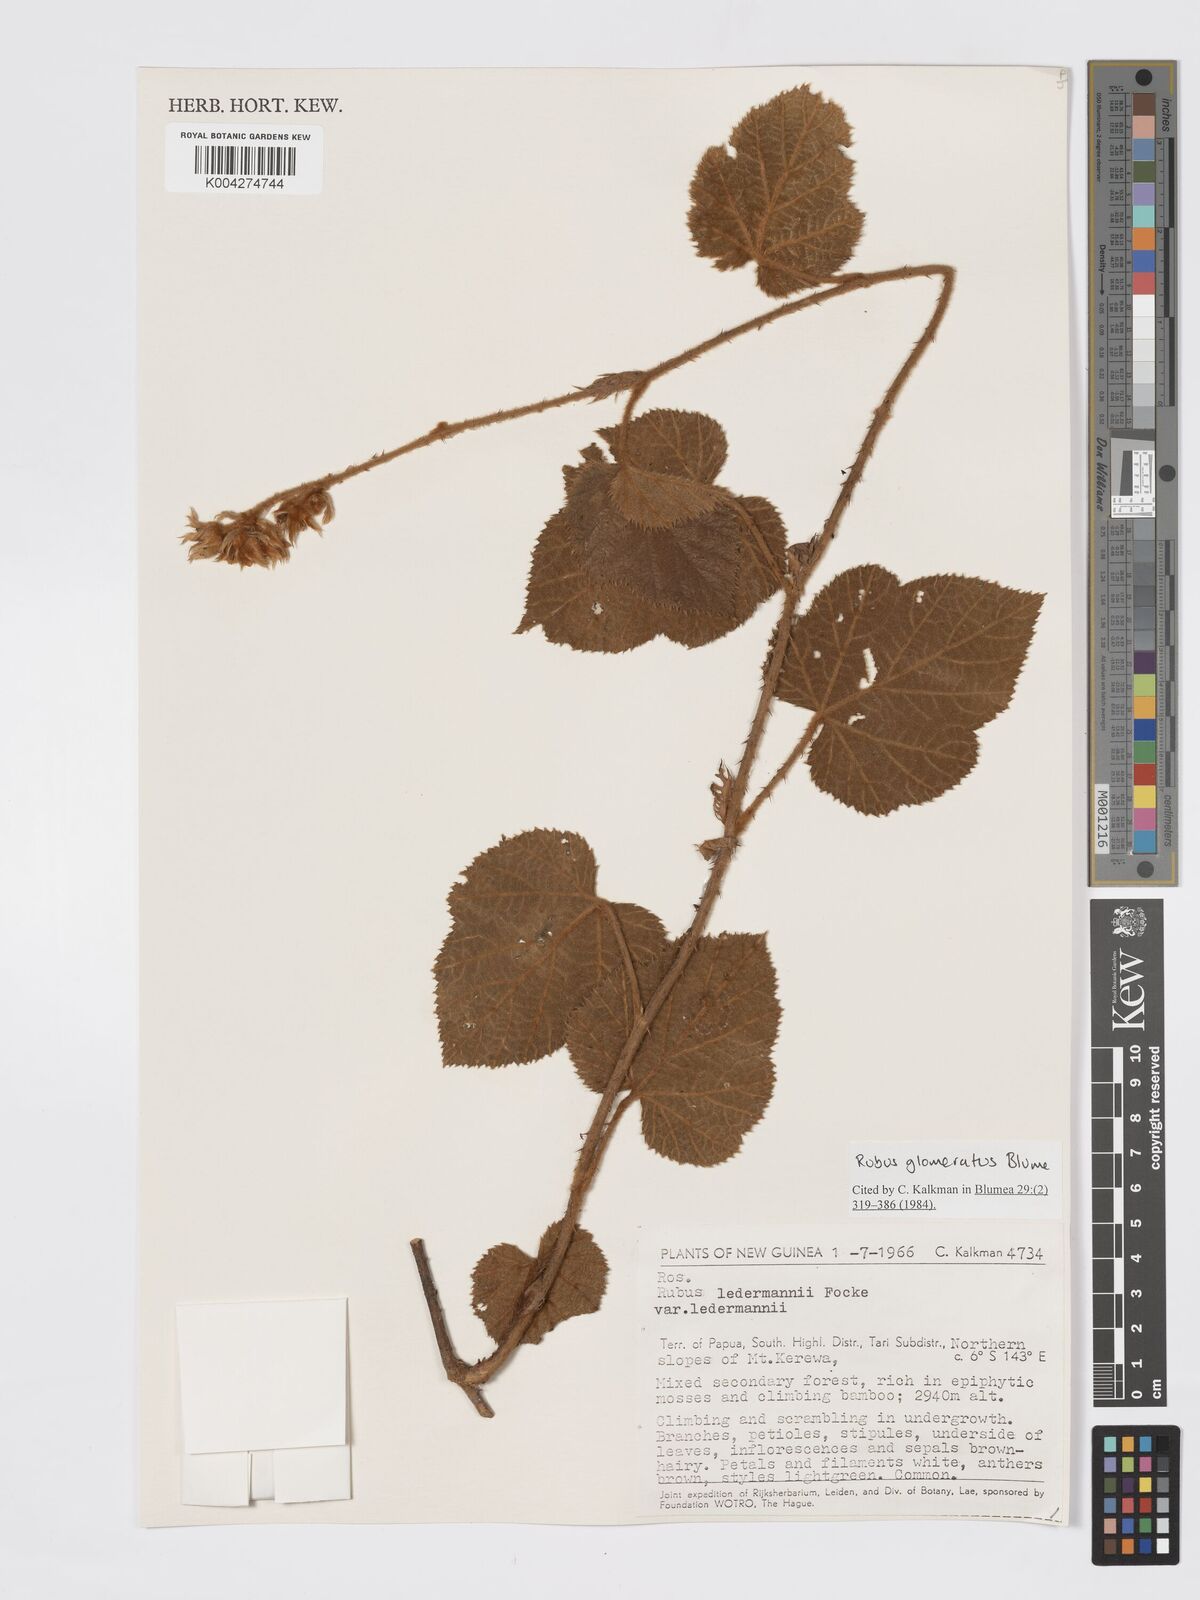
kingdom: Plantae
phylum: Tracheophyta
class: Magnoliopsida
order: Rosales
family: Rosaceae
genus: Rubus
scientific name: Rubus
